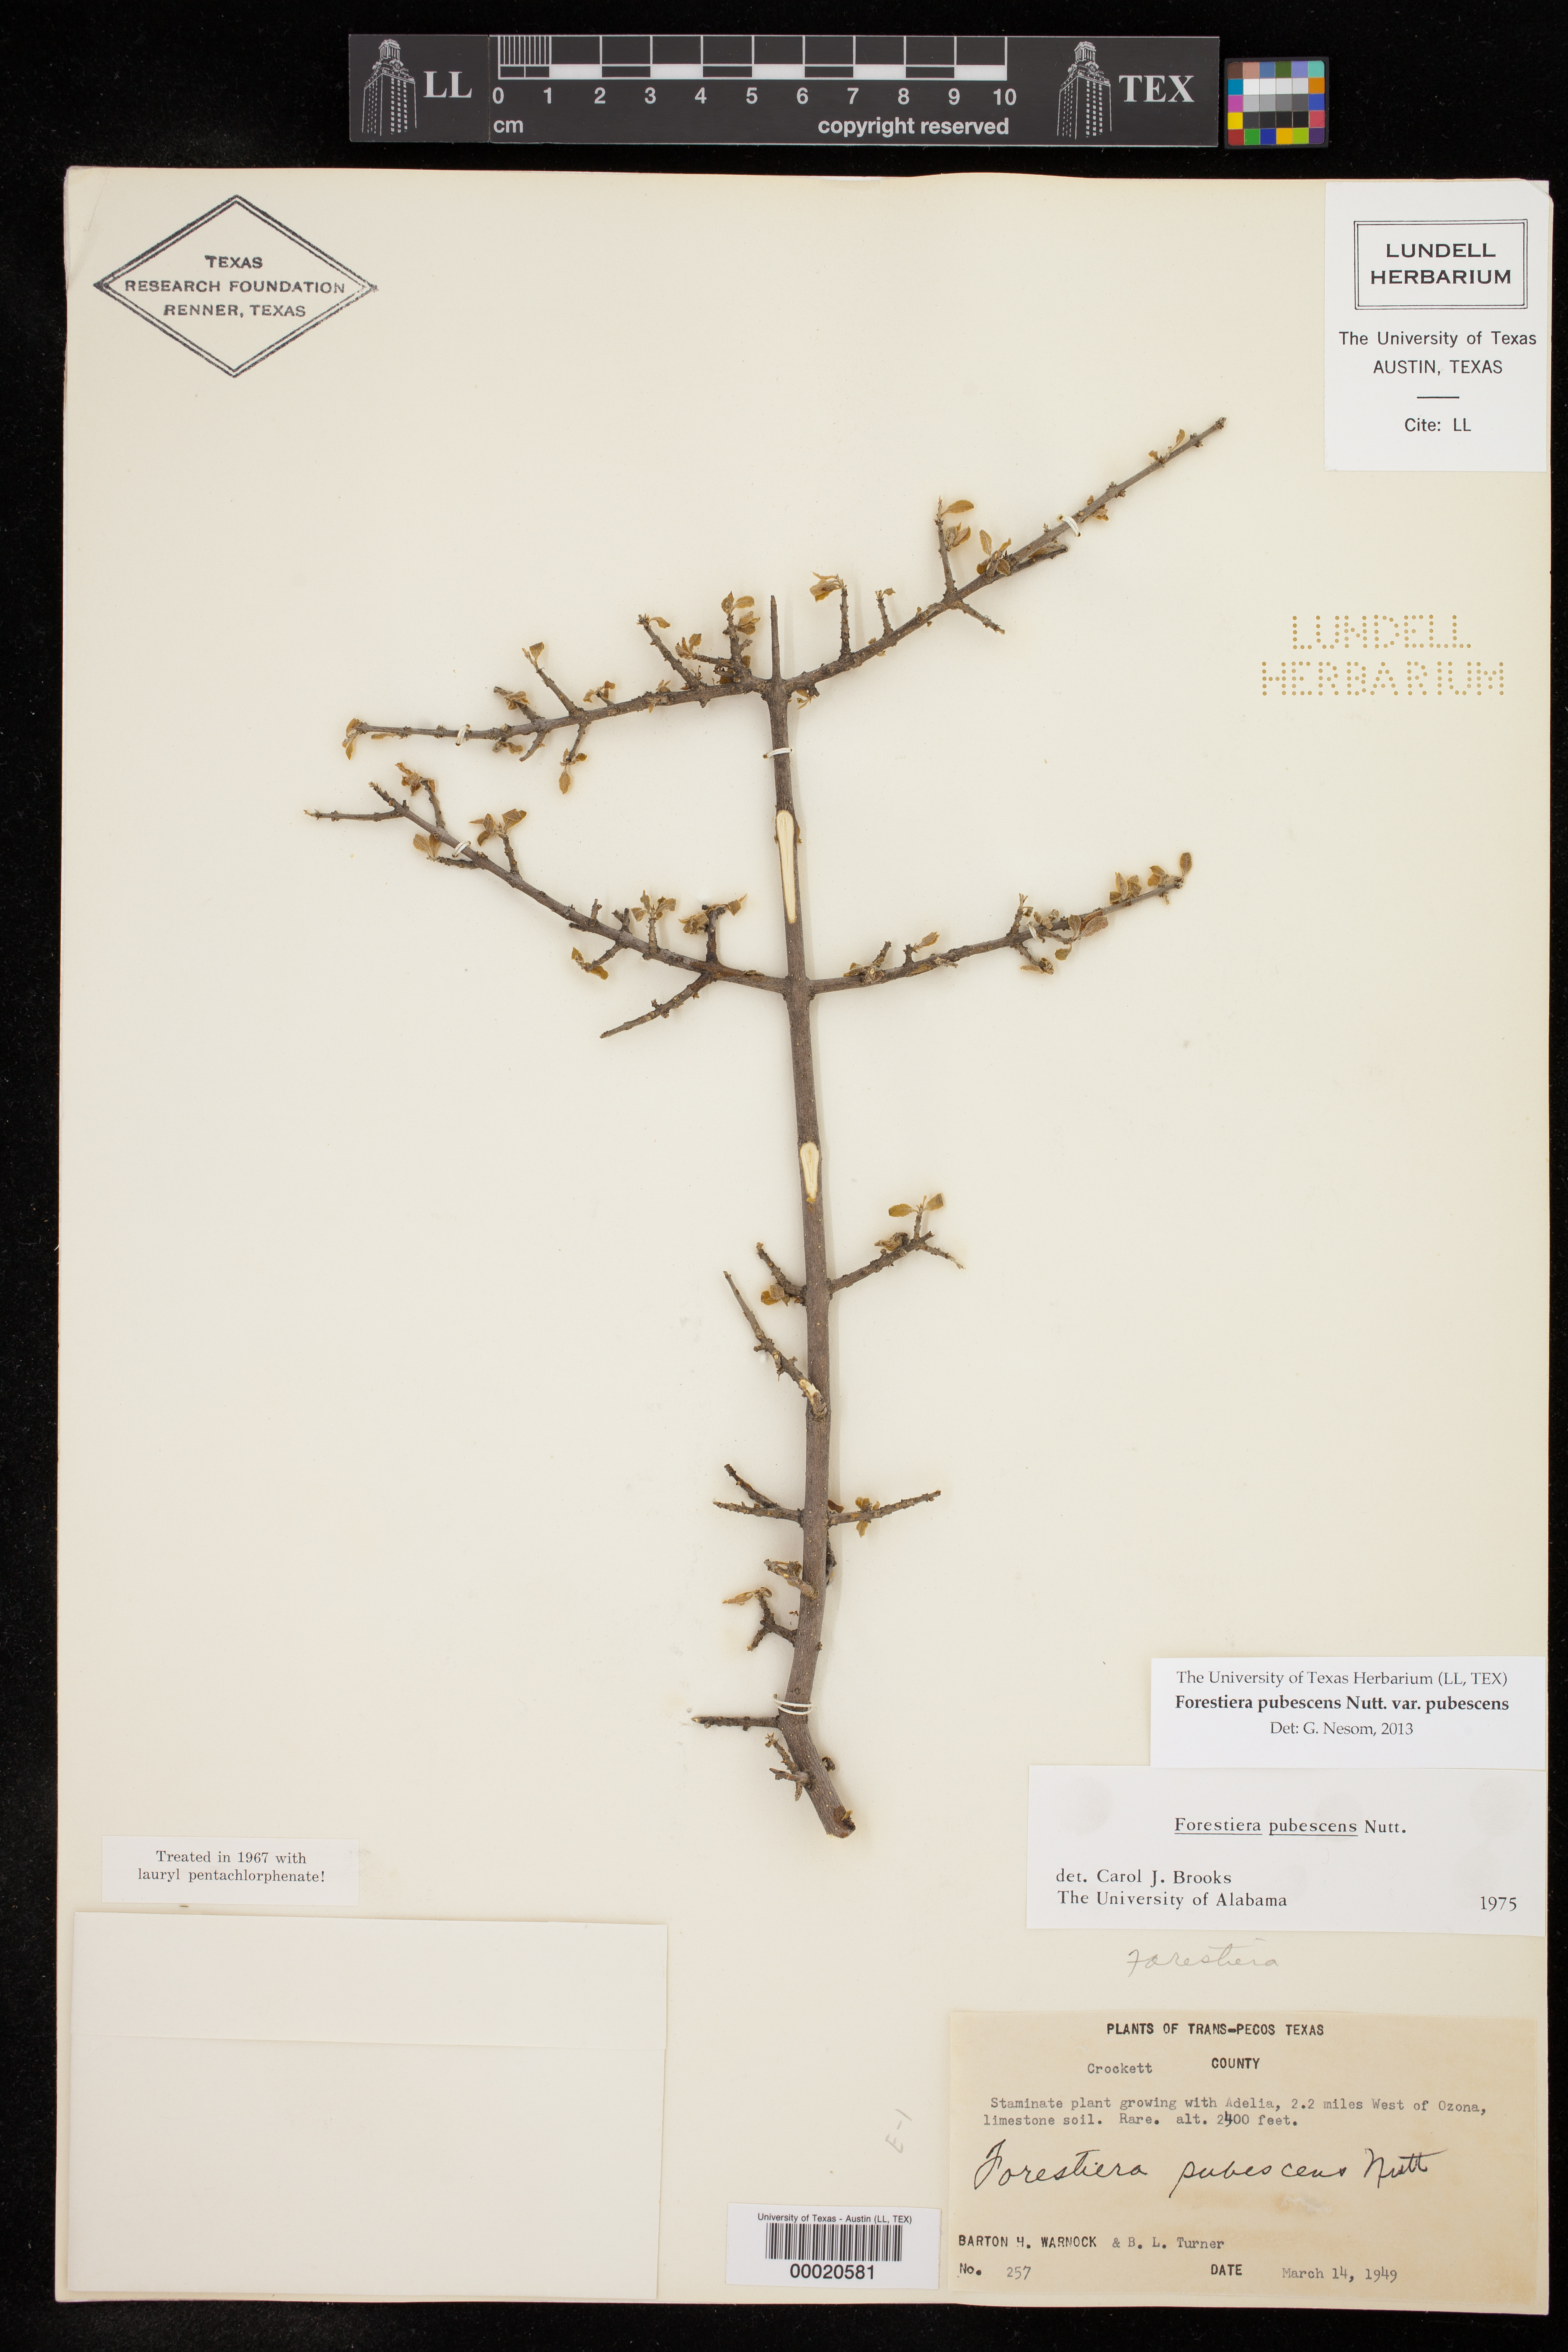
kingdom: Plantae
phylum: Tracheophyta
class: Magnoliopsida
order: Lamiales
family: Oleaceae
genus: Forestiera
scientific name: Forestiera pubescens
